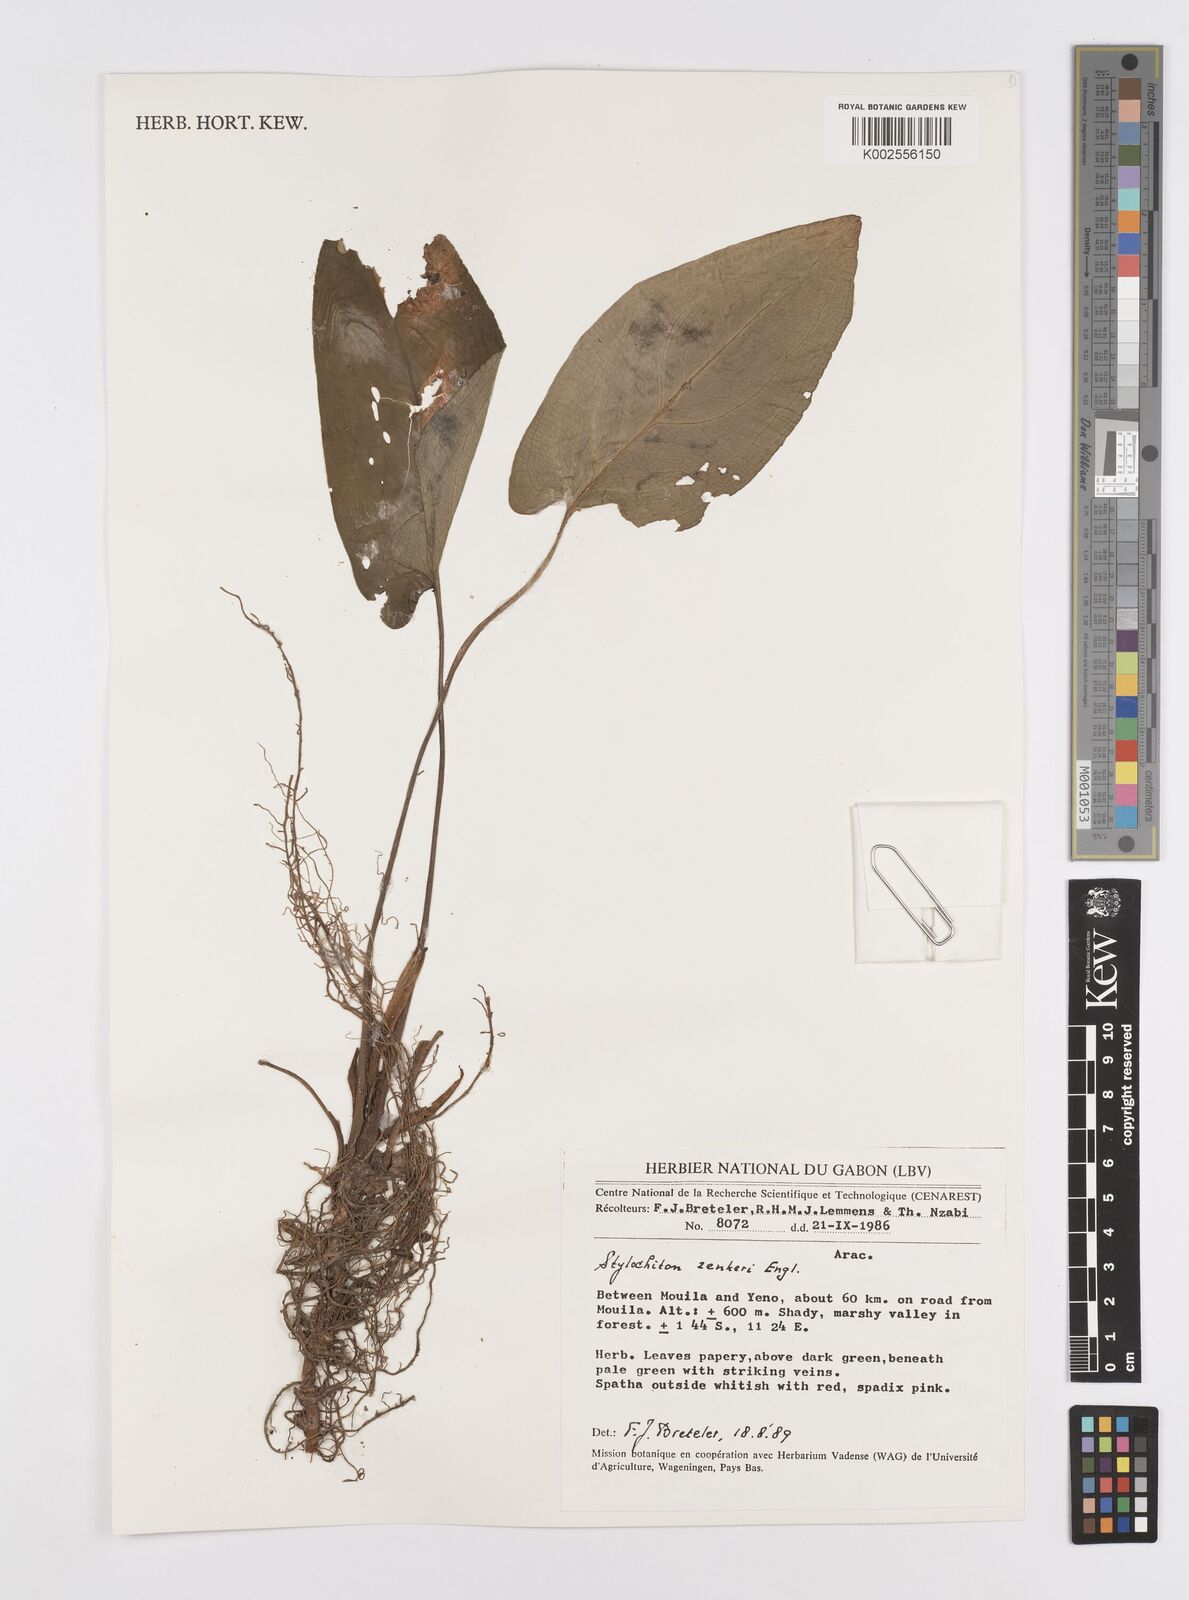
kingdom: Plantae
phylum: Tracheophyta
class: Liliopsida
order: Alismatales
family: Araceae
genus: Stylochaeton
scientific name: Stylochaeton zenkeri
